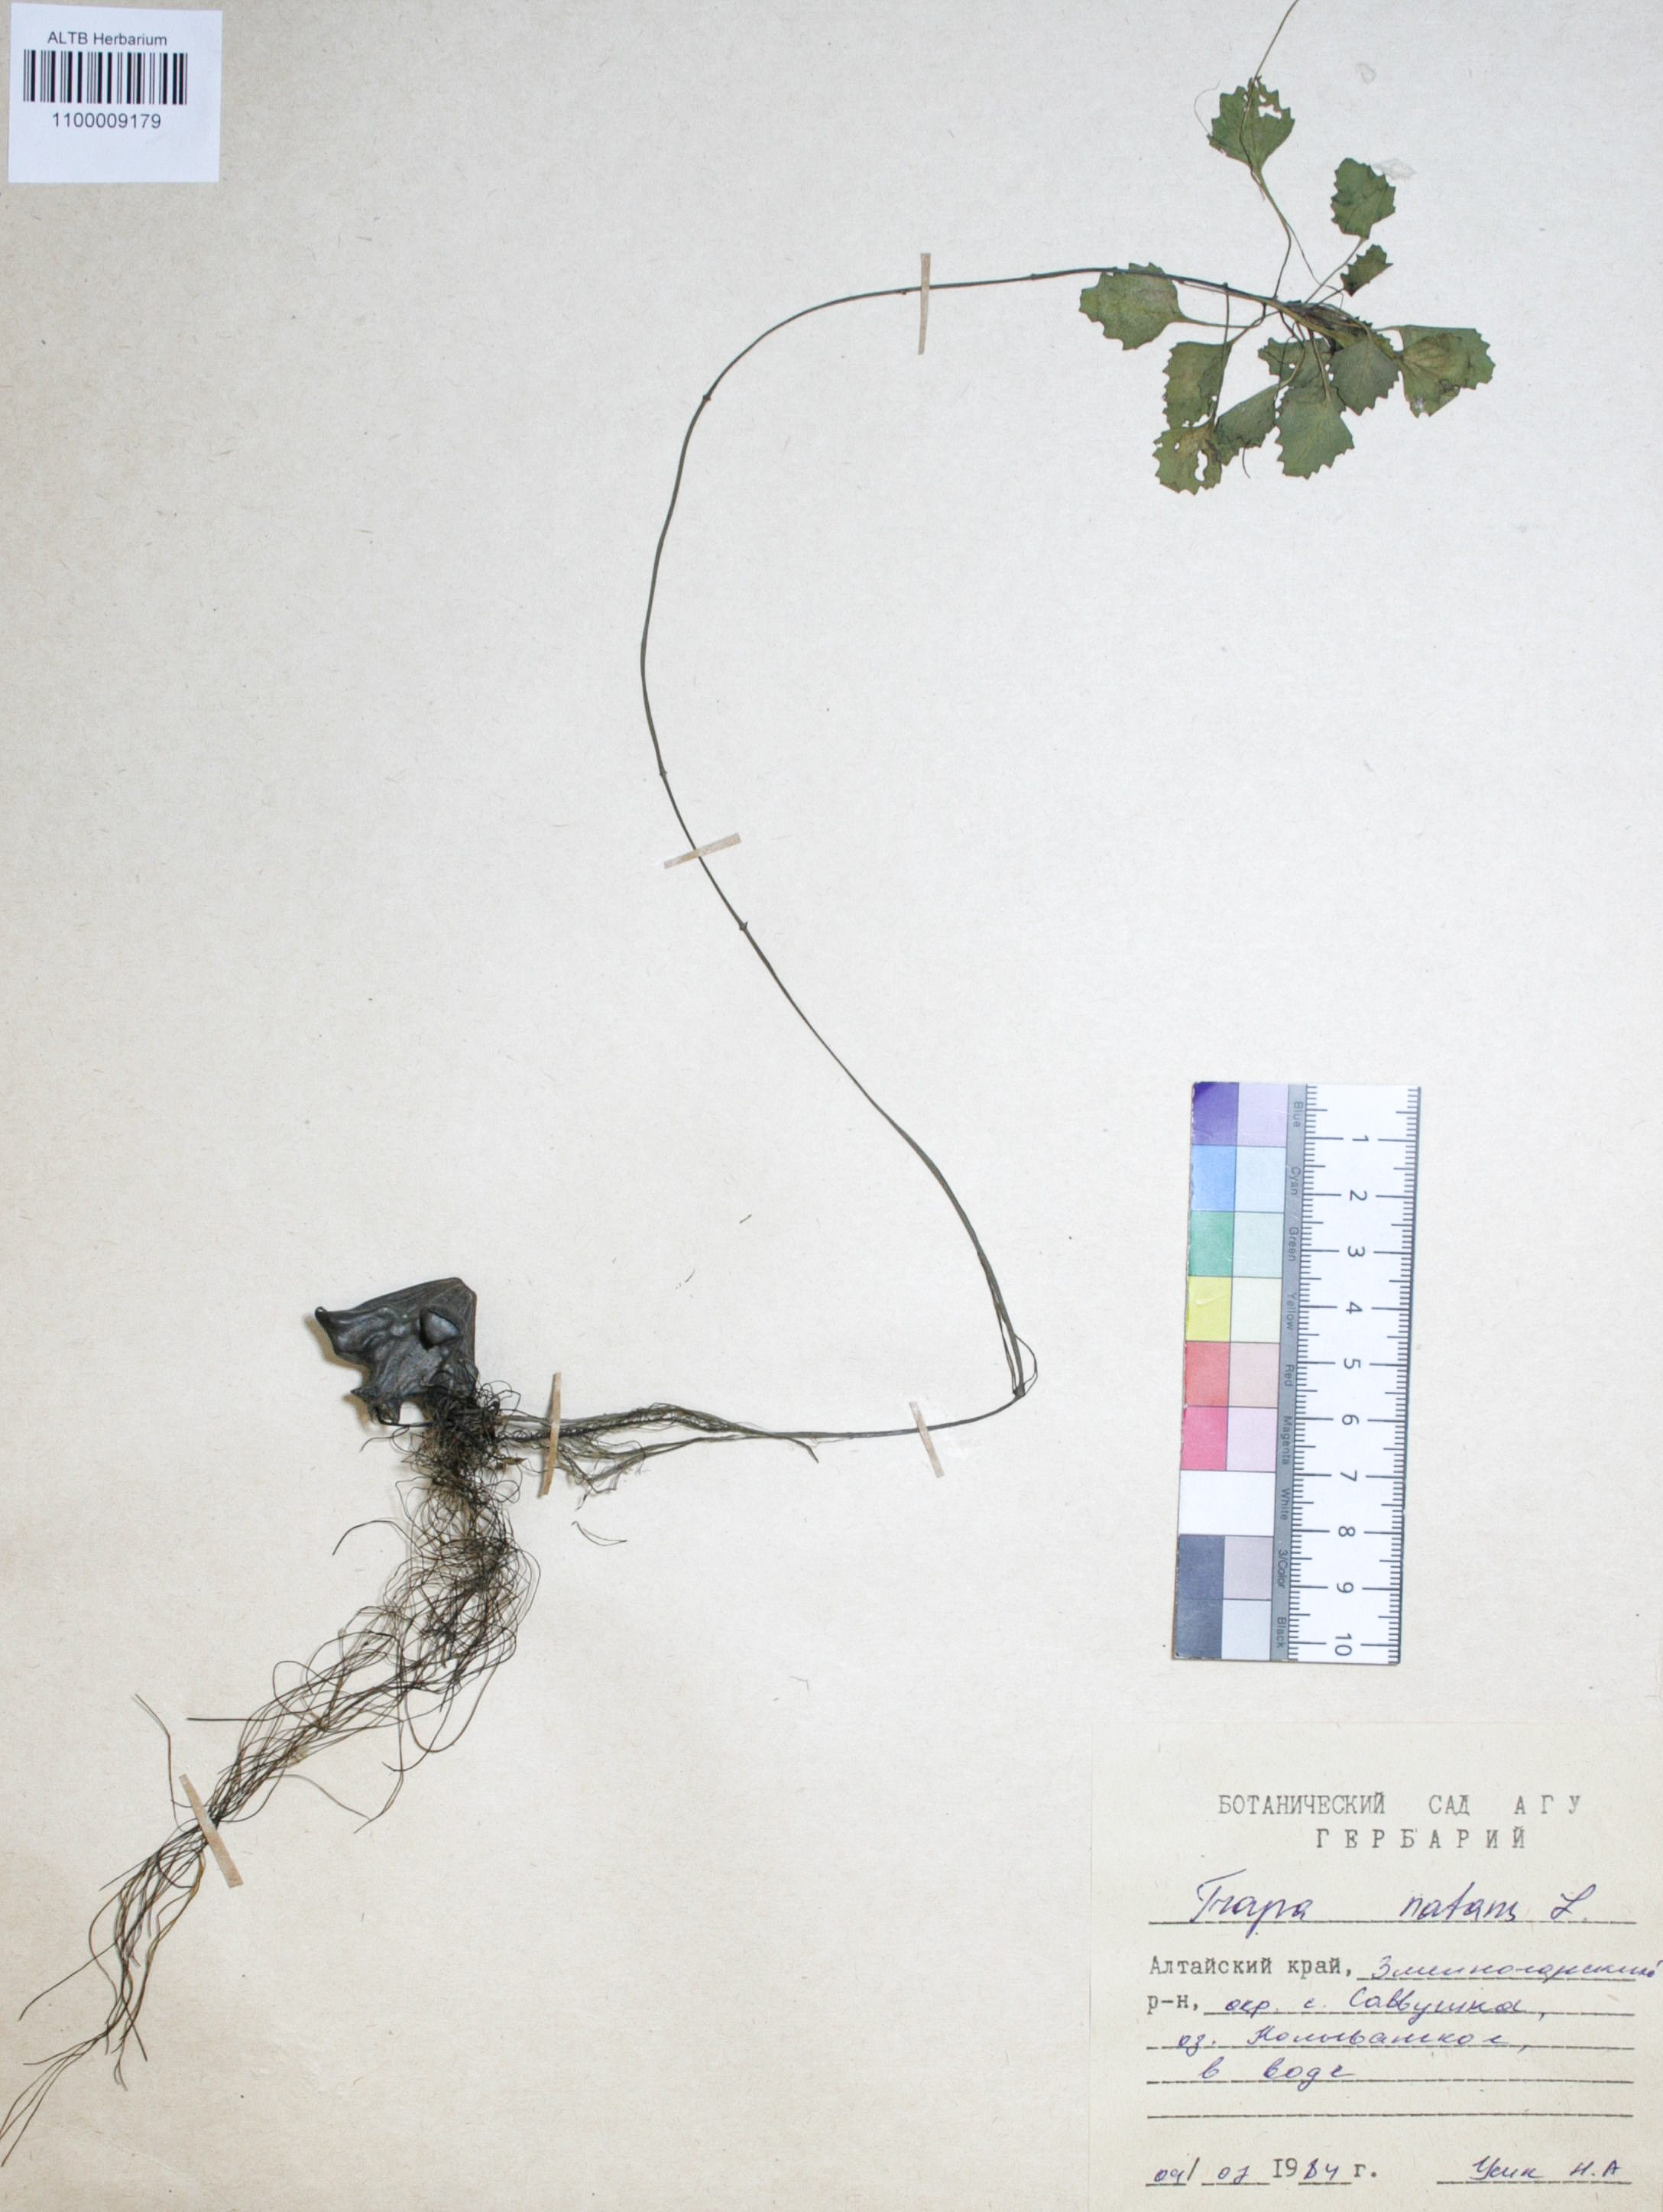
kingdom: Plantae
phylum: Tracheophyta
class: Magnoliopsida
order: Myrtales
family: Lythraceae
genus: Trapa
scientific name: Trapa natans
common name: Water chestnut
